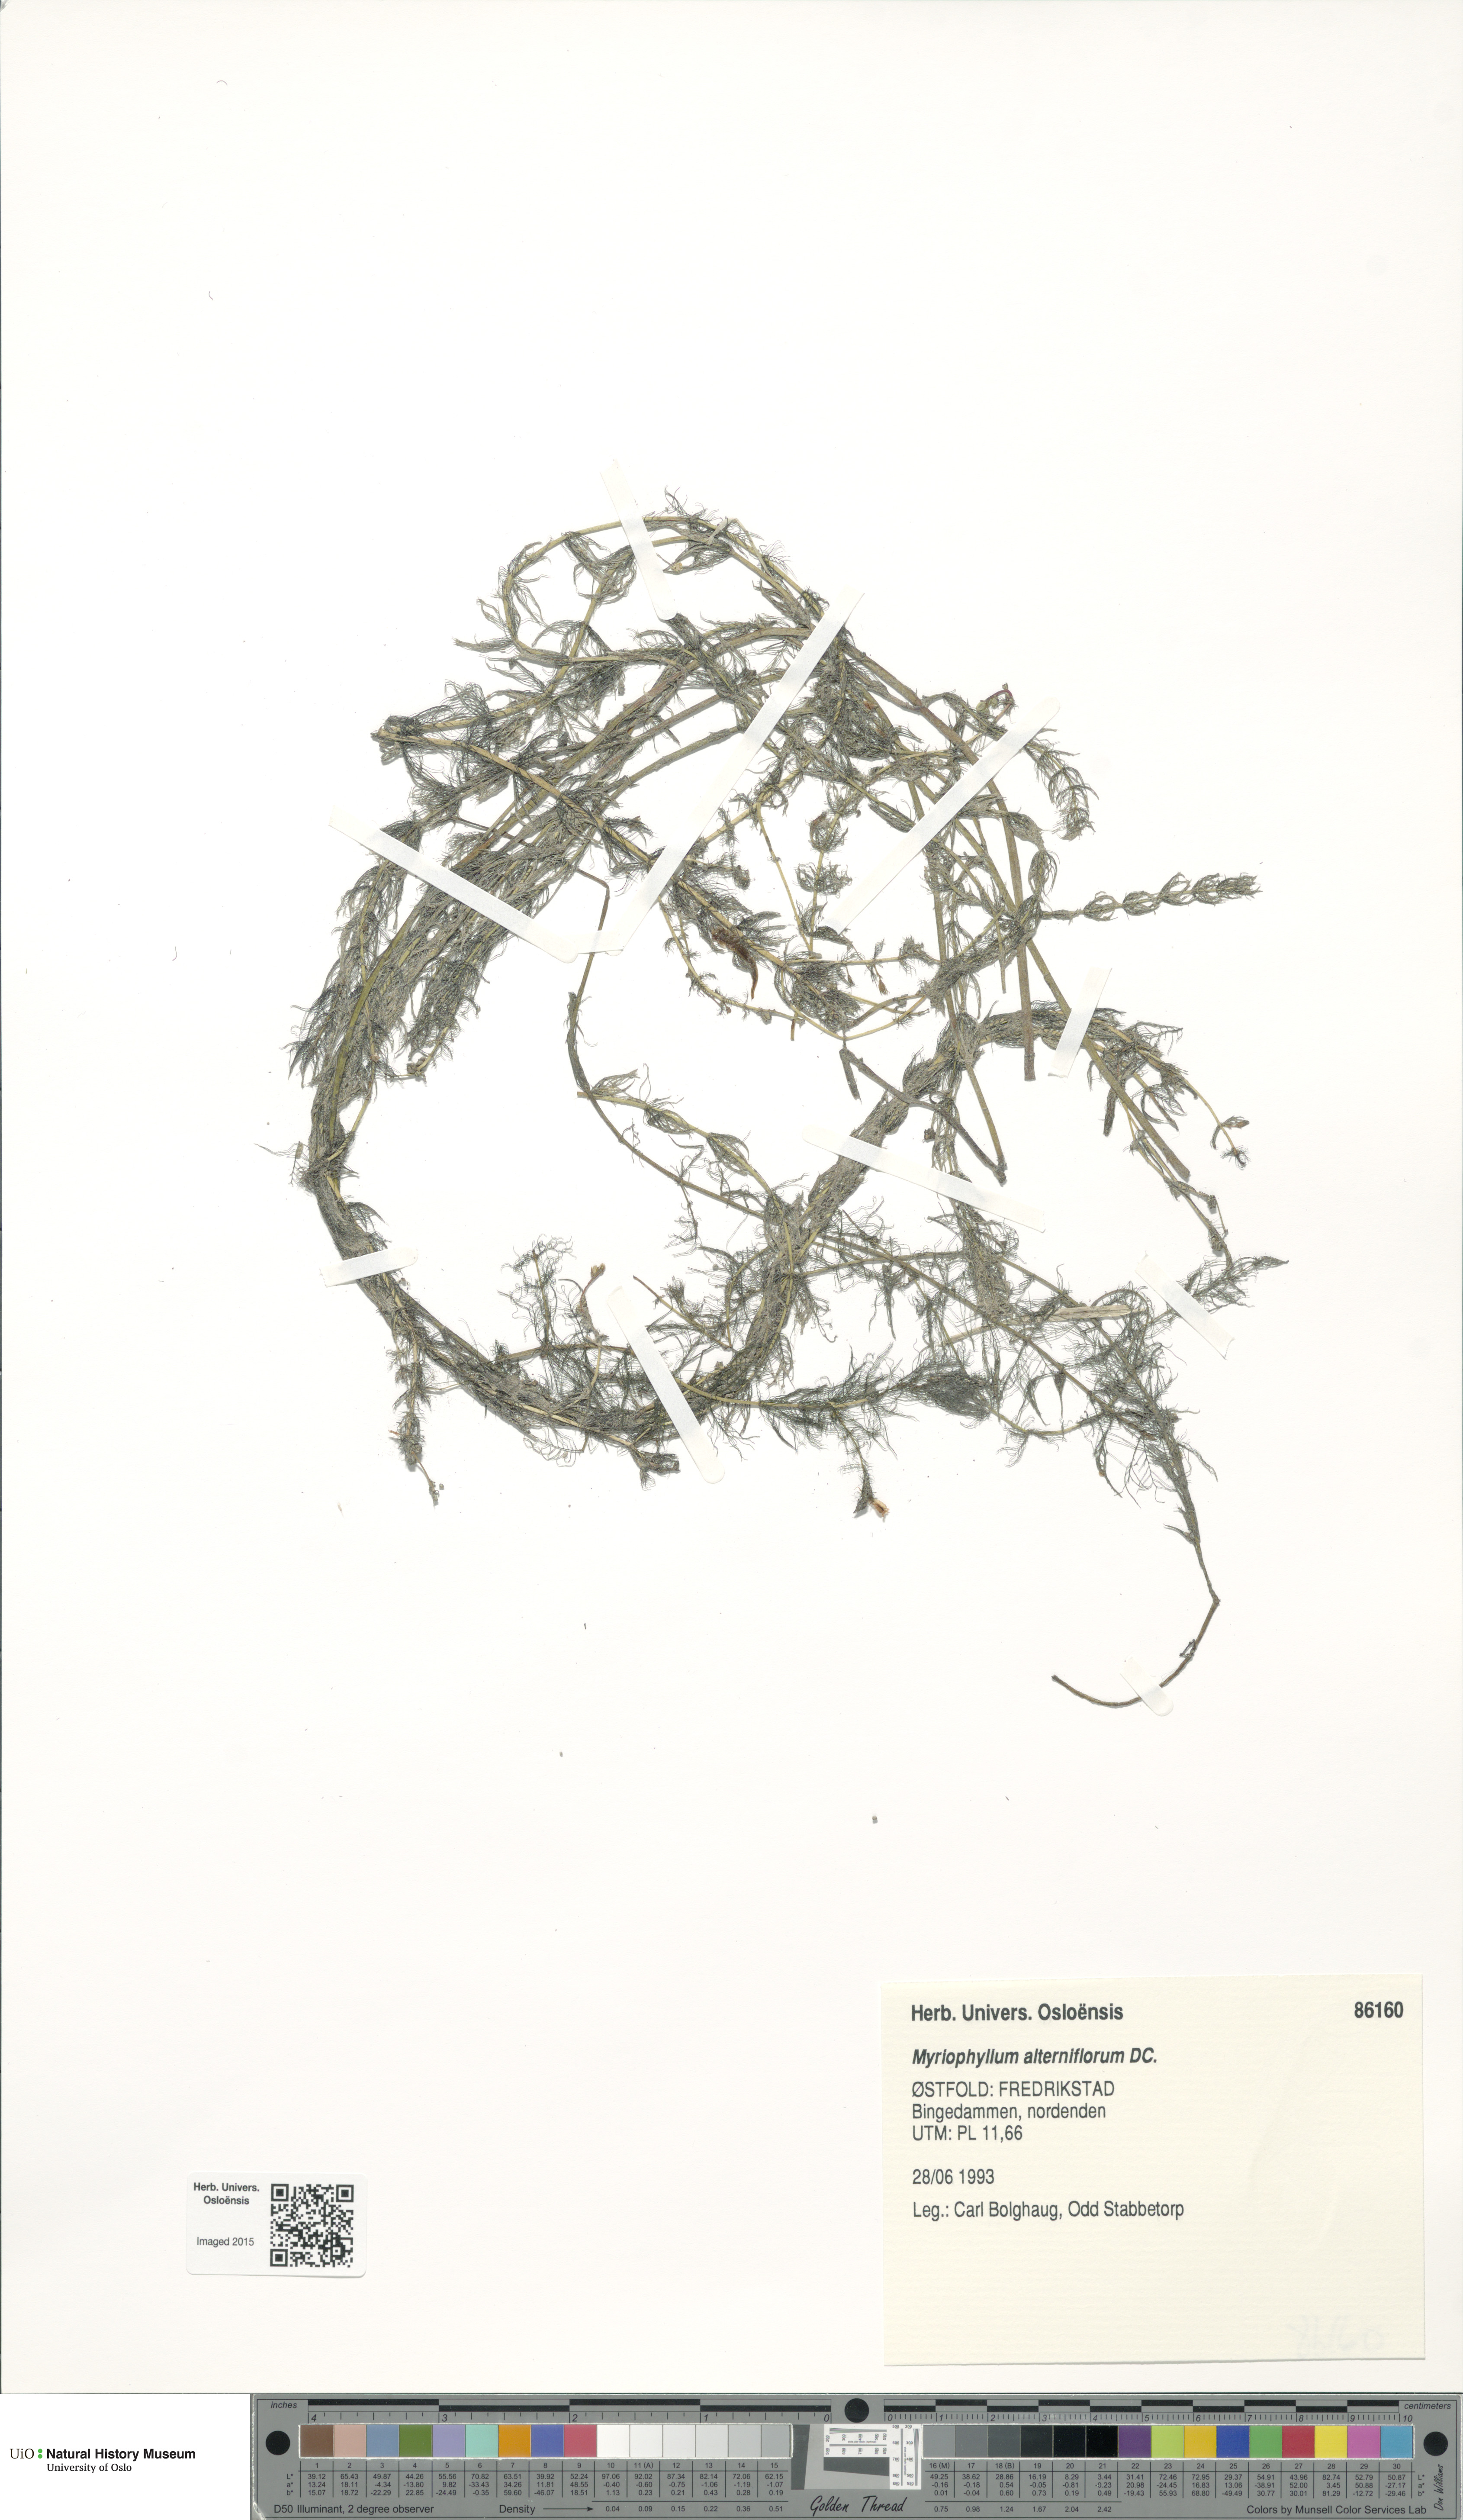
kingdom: Plantae
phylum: Tracheophyta
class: Magnoliopsida
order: Saxifragales
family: Haloragaceae
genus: Myriophyllum
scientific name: Myriophyllum alterniflorum
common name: Alternate water-milfoil
